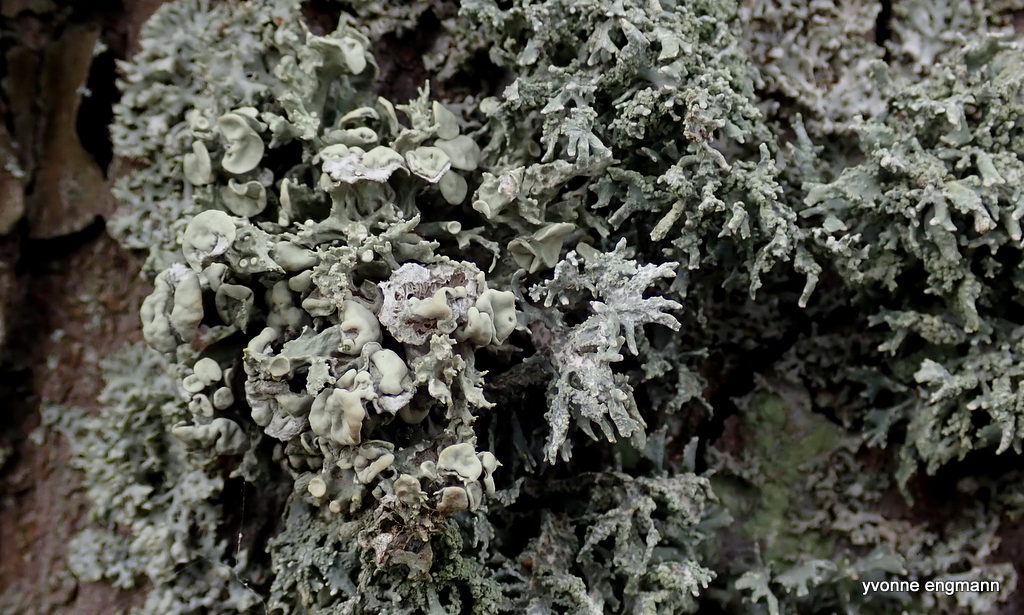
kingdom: Fungi
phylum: Ascomycota
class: Lecanoromycetes
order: Lecanorales
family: Ramalinaceae
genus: Ramalina
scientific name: Ramalina fastigiata
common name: tue-grenlav
